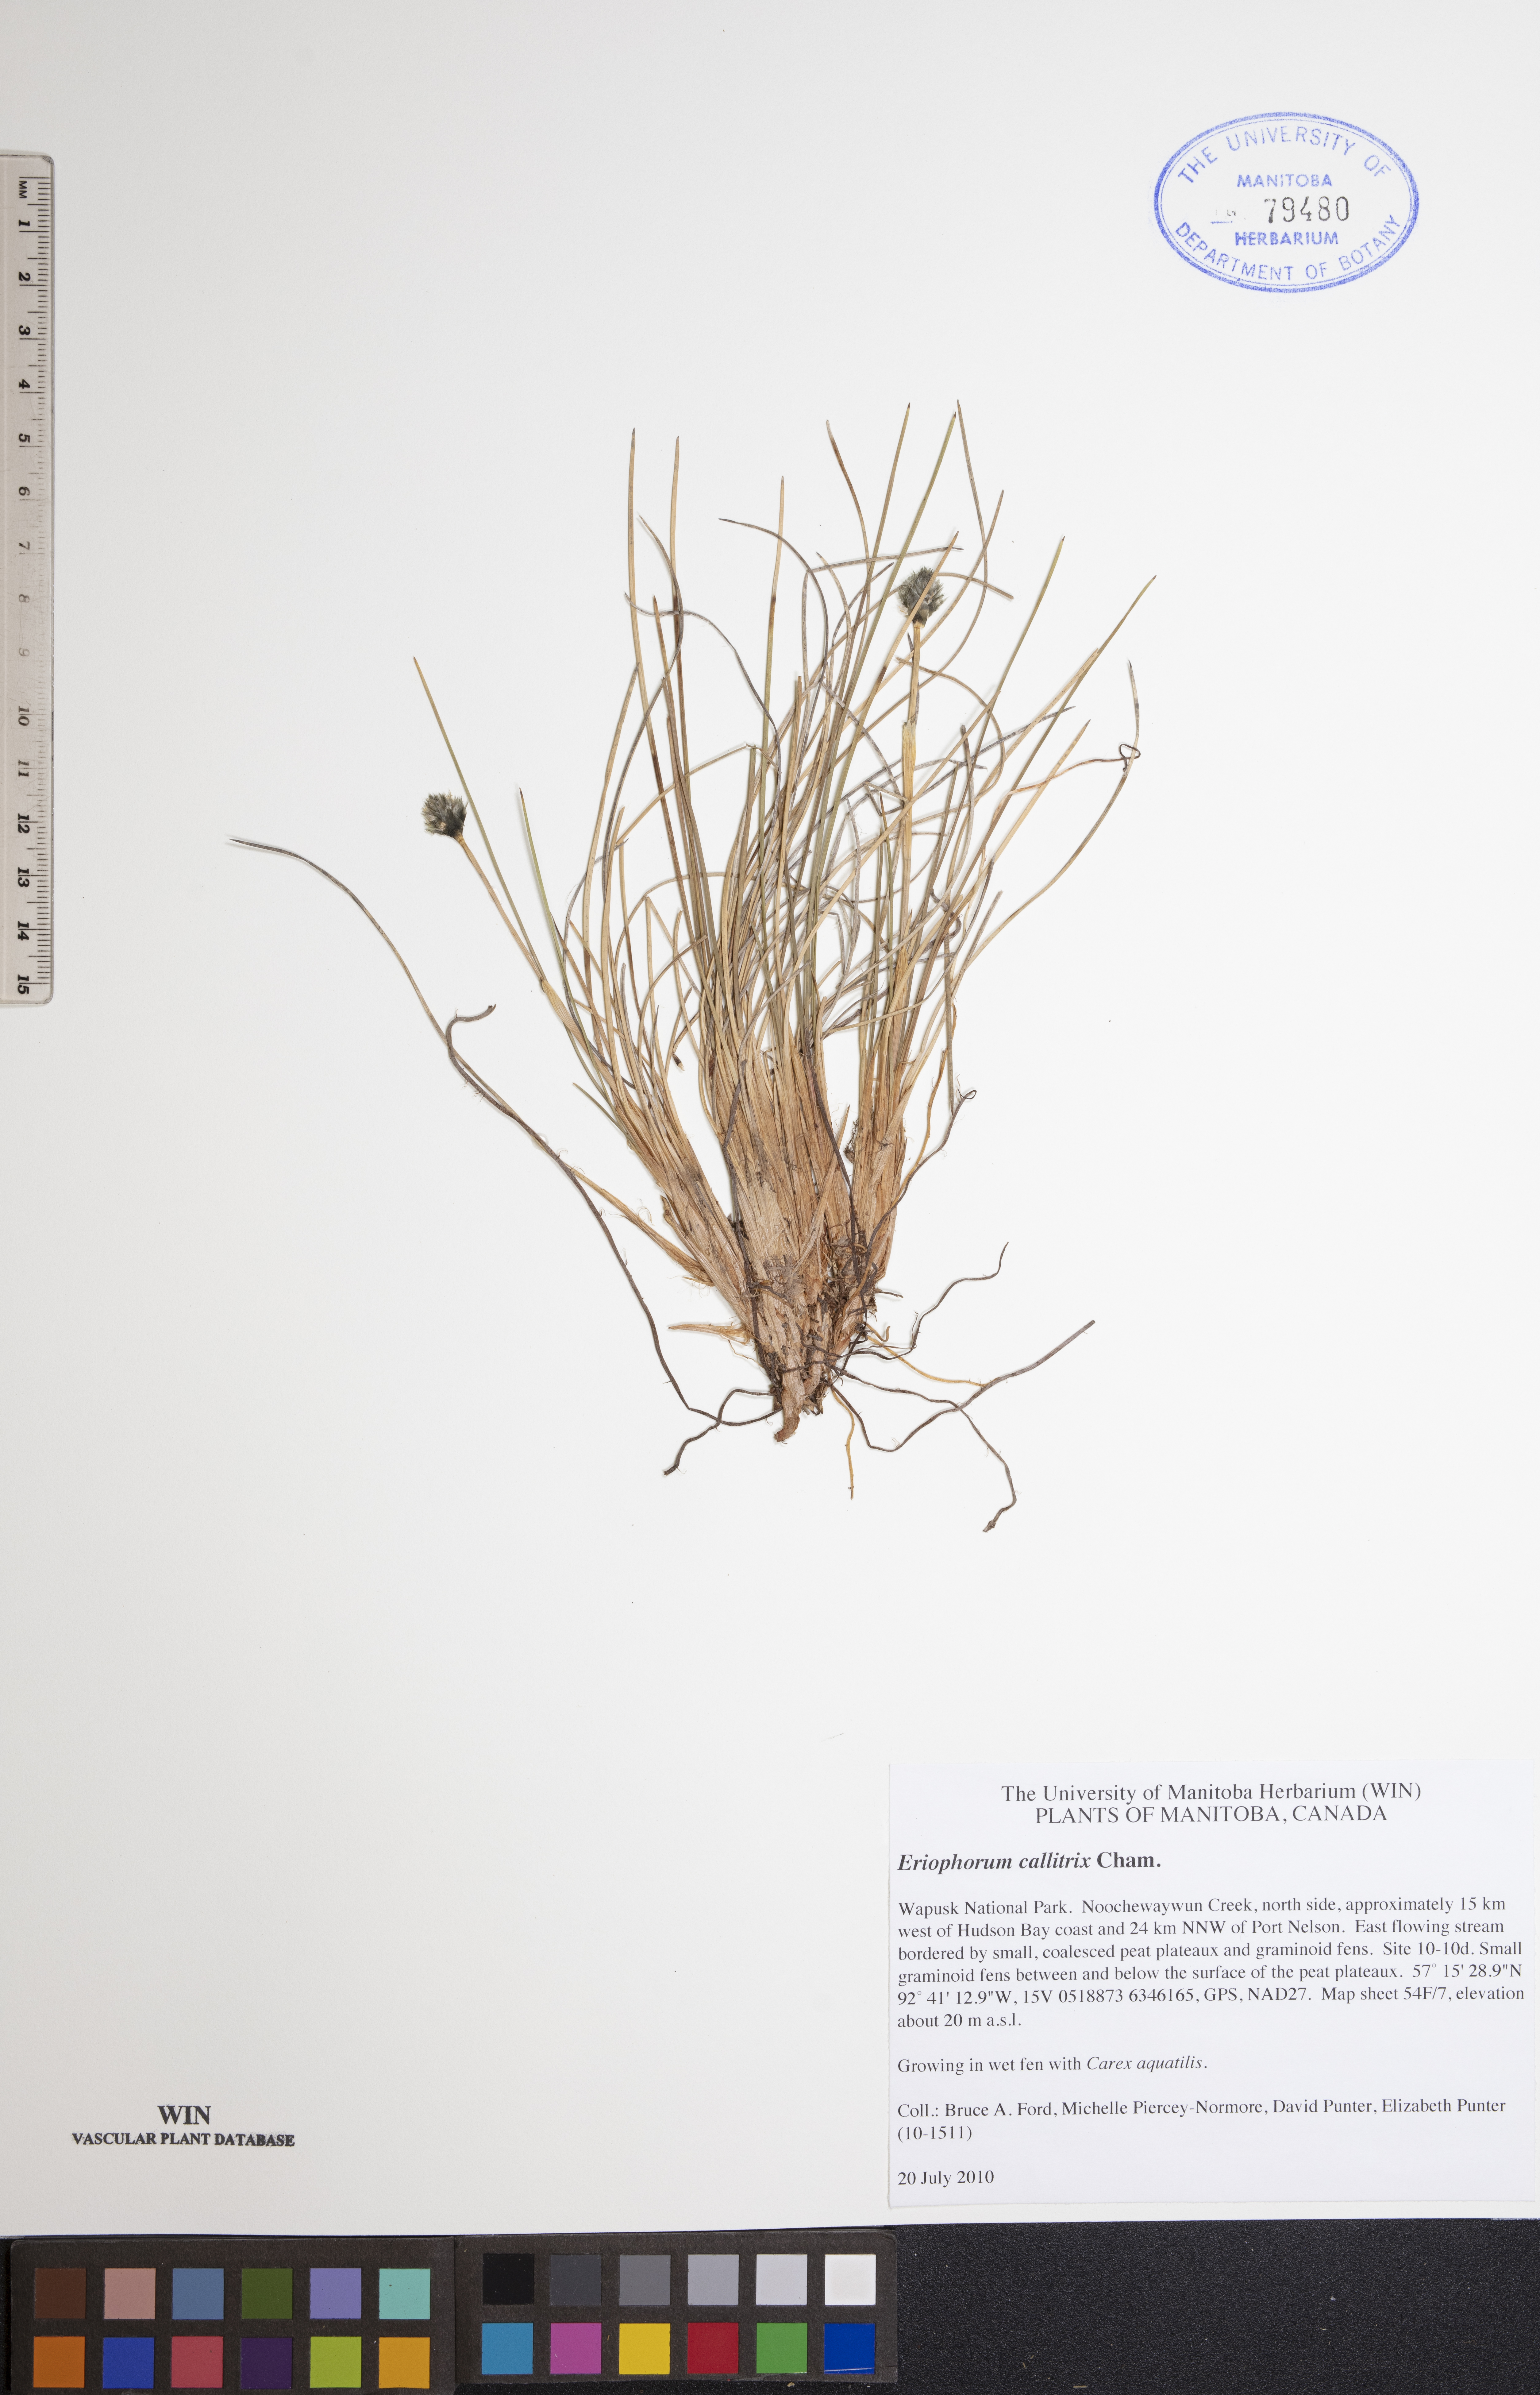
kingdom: Plantae
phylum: Tracheophyta
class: Liliopsida
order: Poales
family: Cyperaceae
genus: Eriophorum
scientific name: Eriophorum callitrix
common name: Arctic cottongrass
